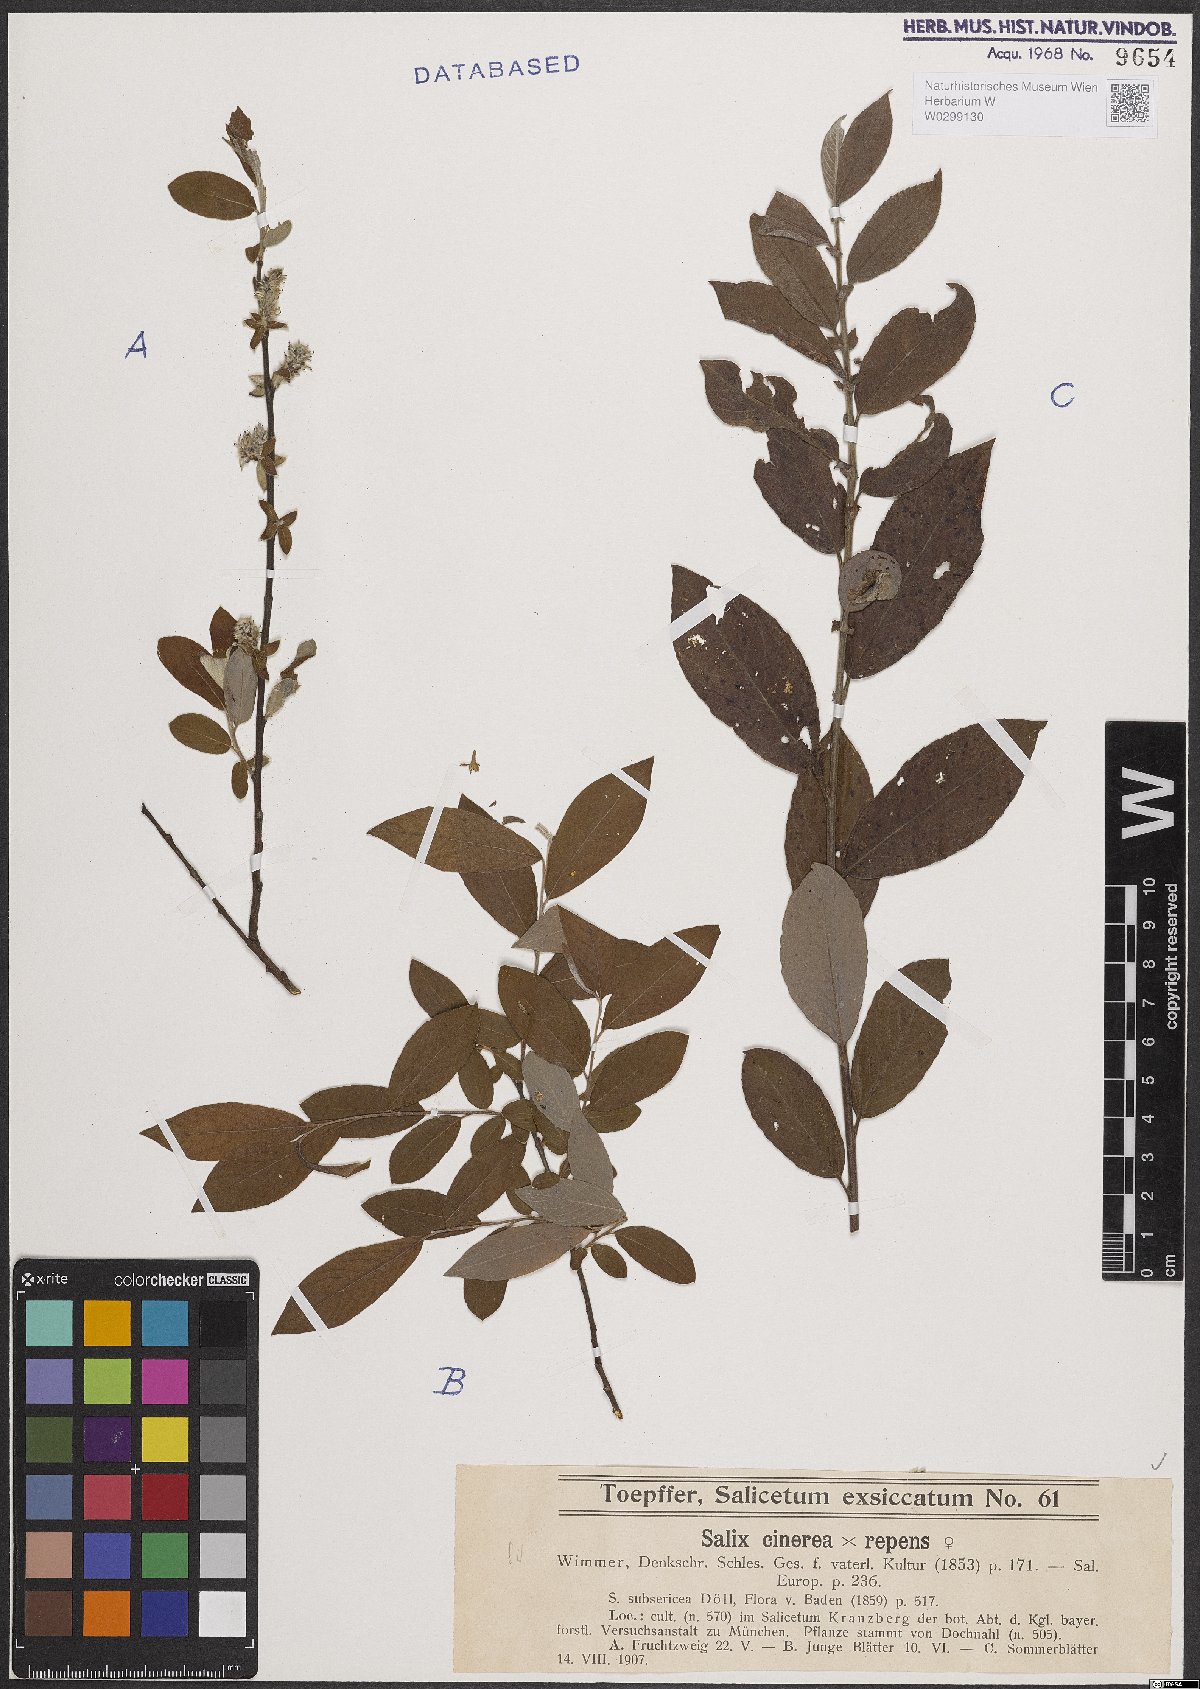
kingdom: Plantae
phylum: Tracheophyta
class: Magnoliopsida
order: Malpighiales
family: Salicaceae
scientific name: Salicaceae
